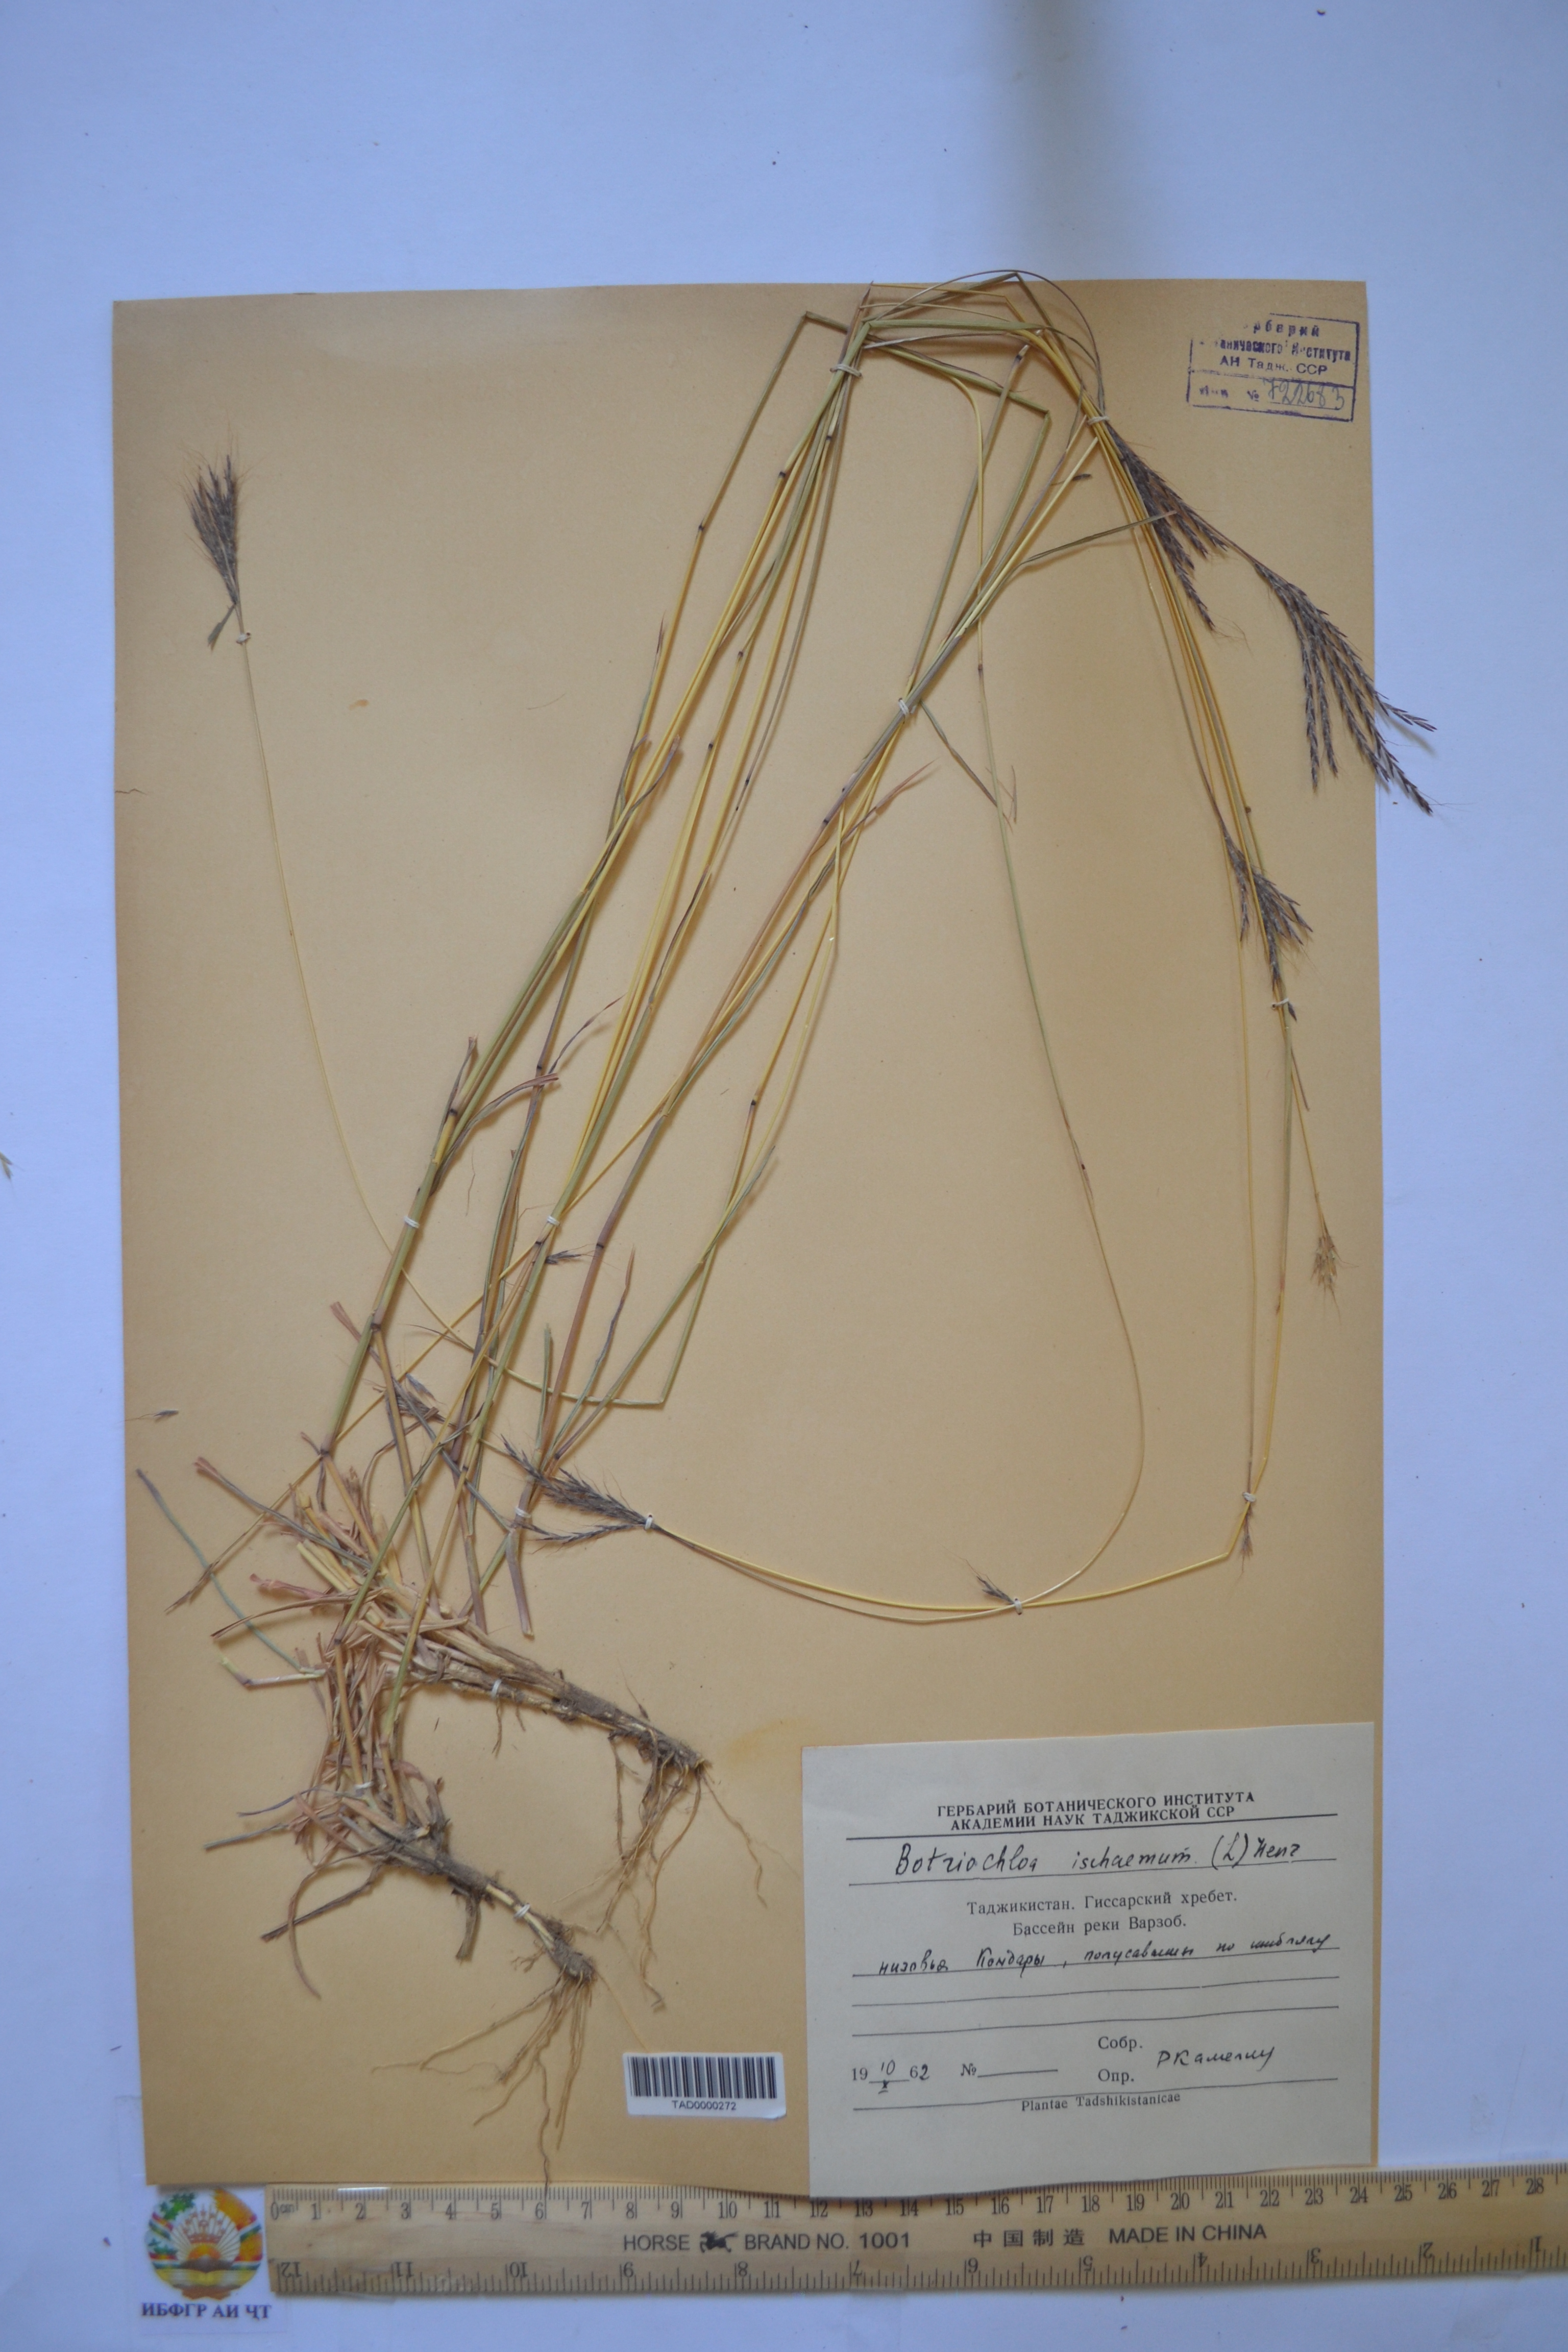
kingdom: Plantae
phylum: Tracheophyta
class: Liliopsida
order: Poales
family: Poaceae
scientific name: Poaceae
